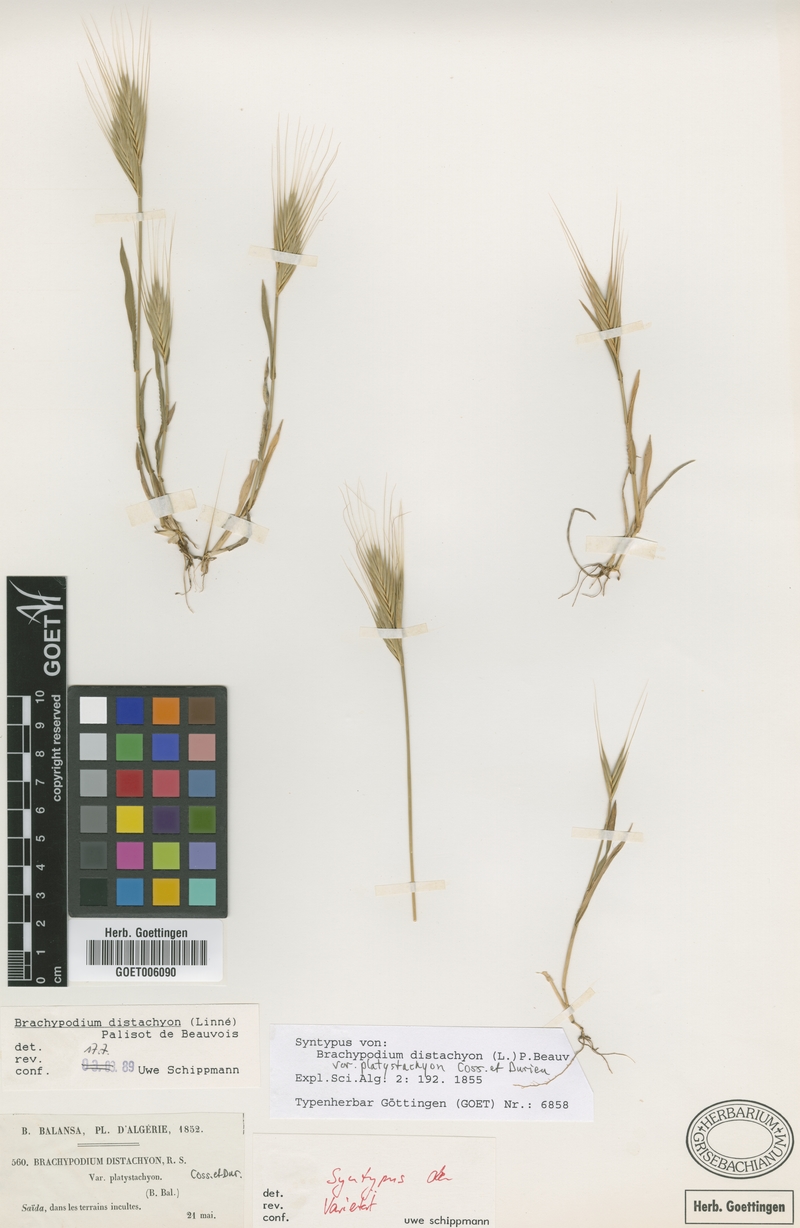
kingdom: Plantae
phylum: Tracheophyta
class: Liliopsida
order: Poales
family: Poaceae
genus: Brachypodium
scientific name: Brachypodium distachyon
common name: Stiff brome
